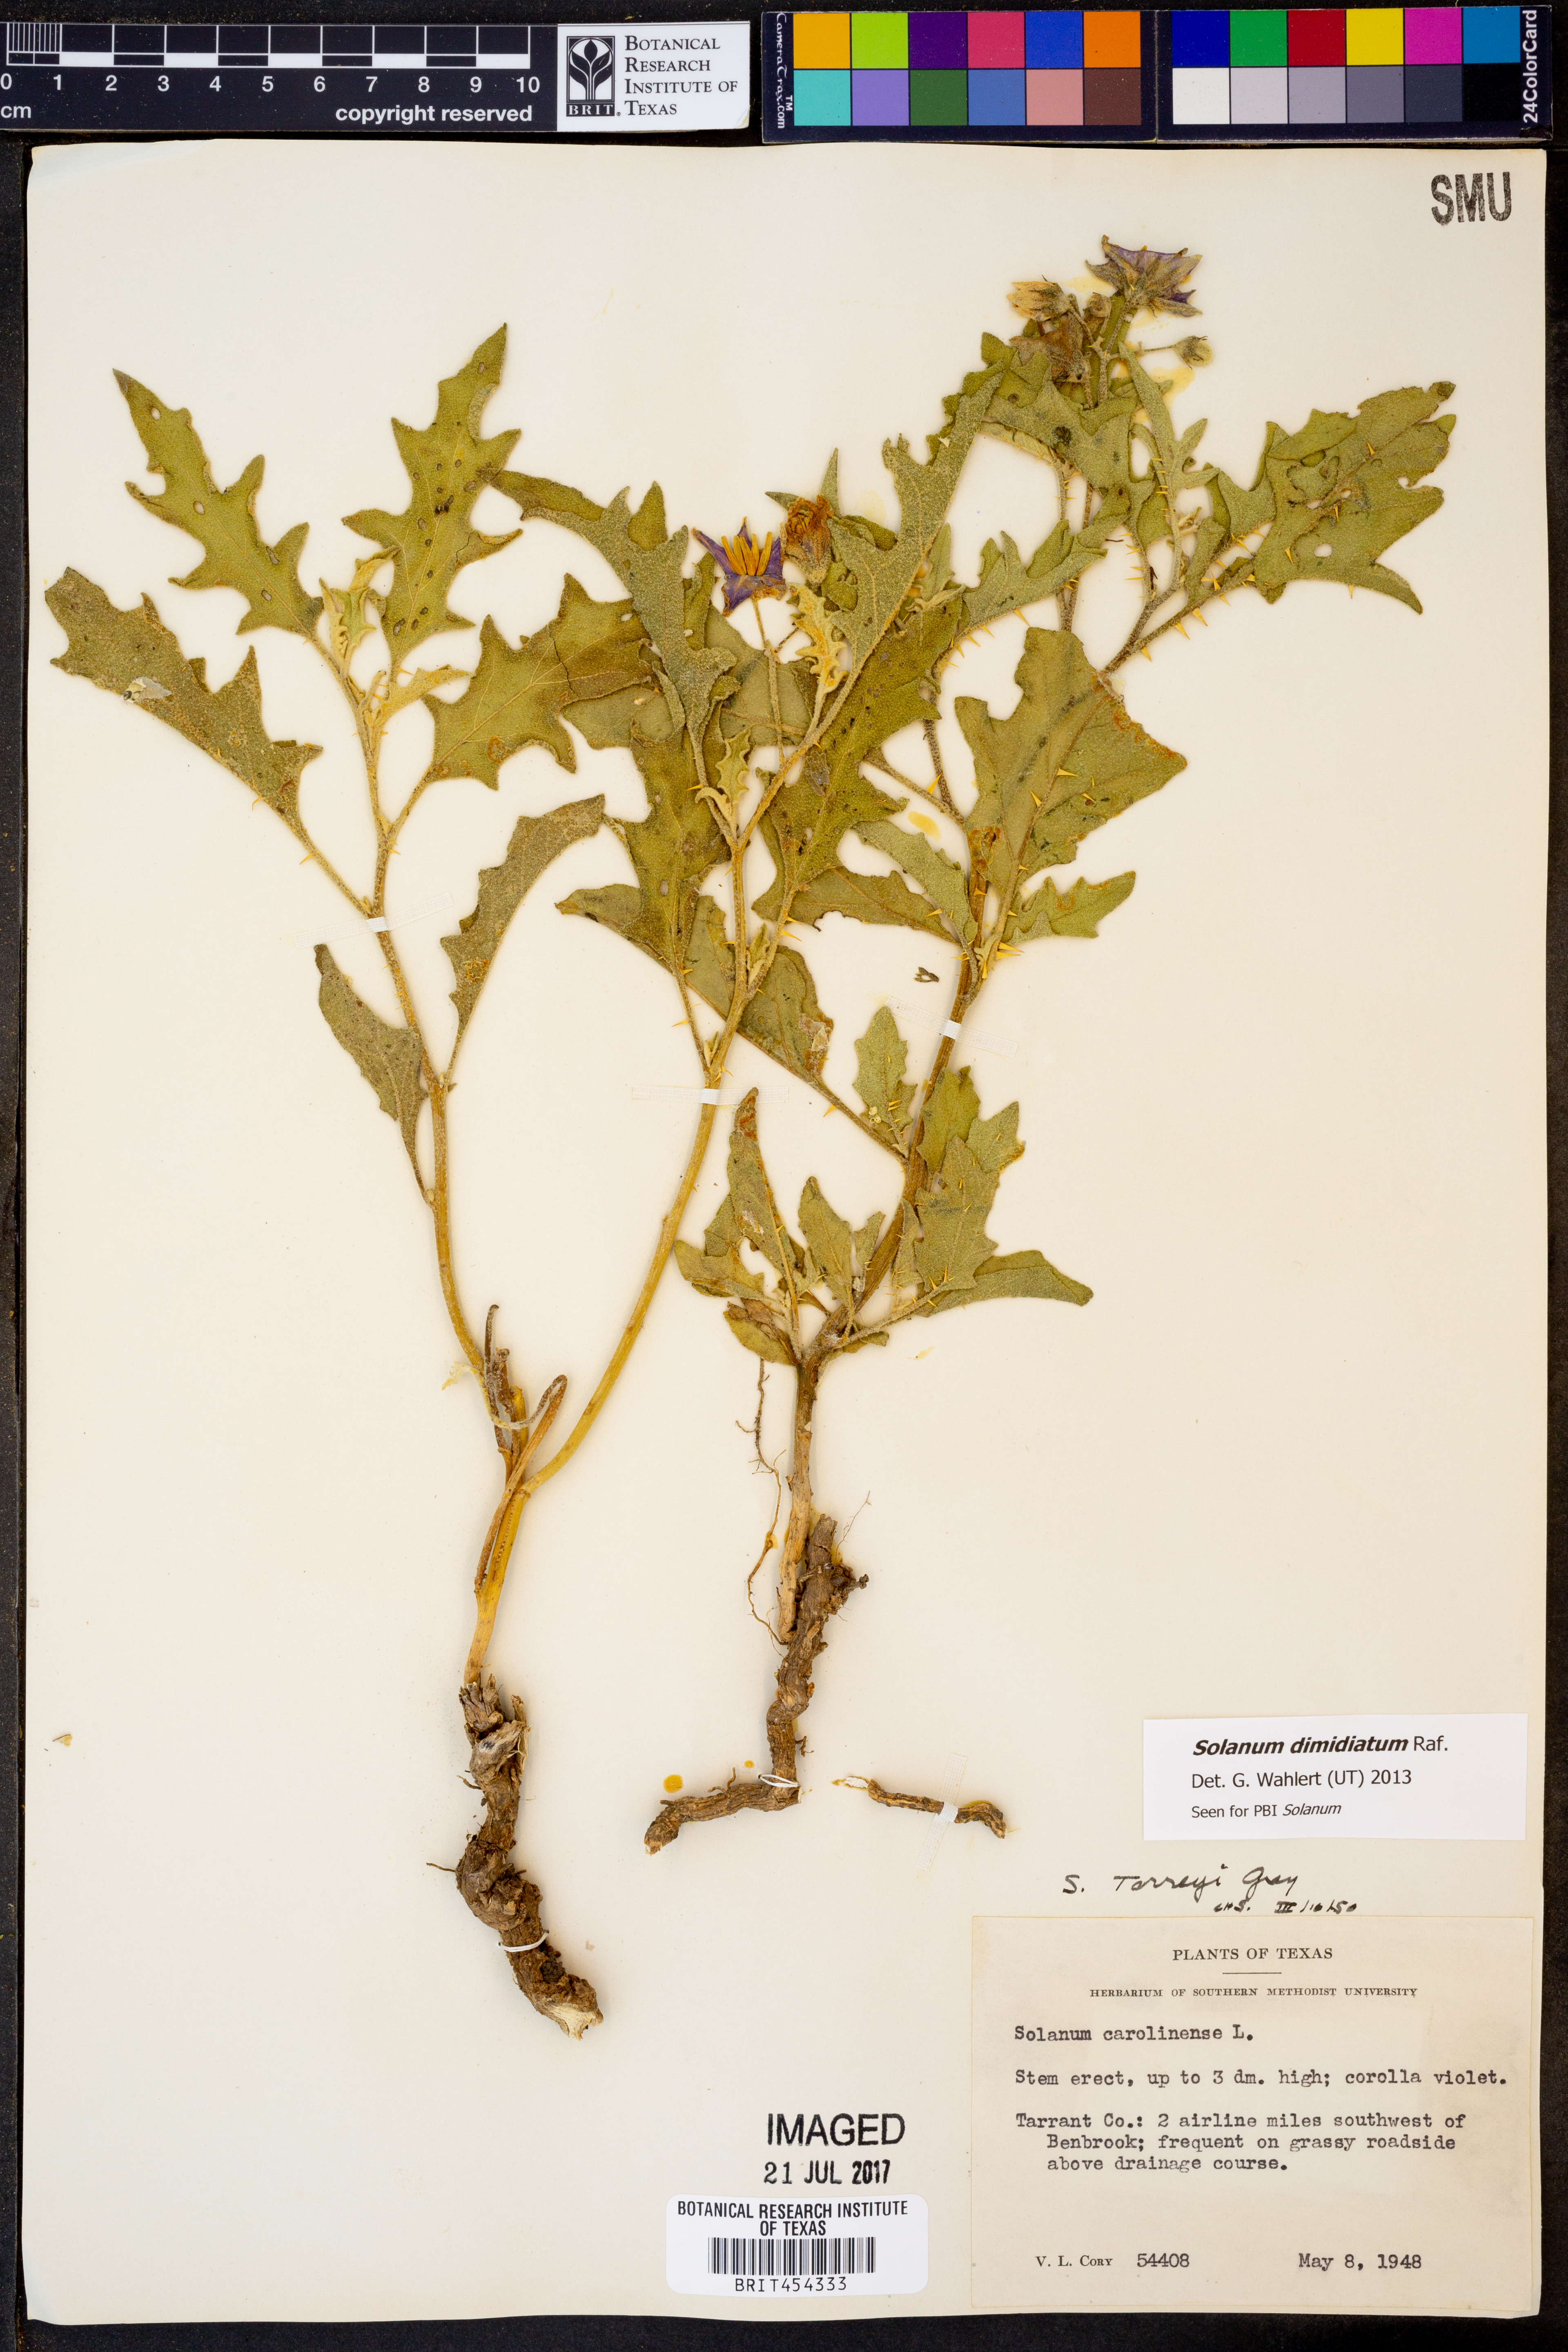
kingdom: Plantae
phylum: Tracheophyta
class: Magnoliopsida
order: Solanales
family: Solanaceae
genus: Solanum
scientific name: Solanum dimidiatum
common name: Carolina horse-nettle
